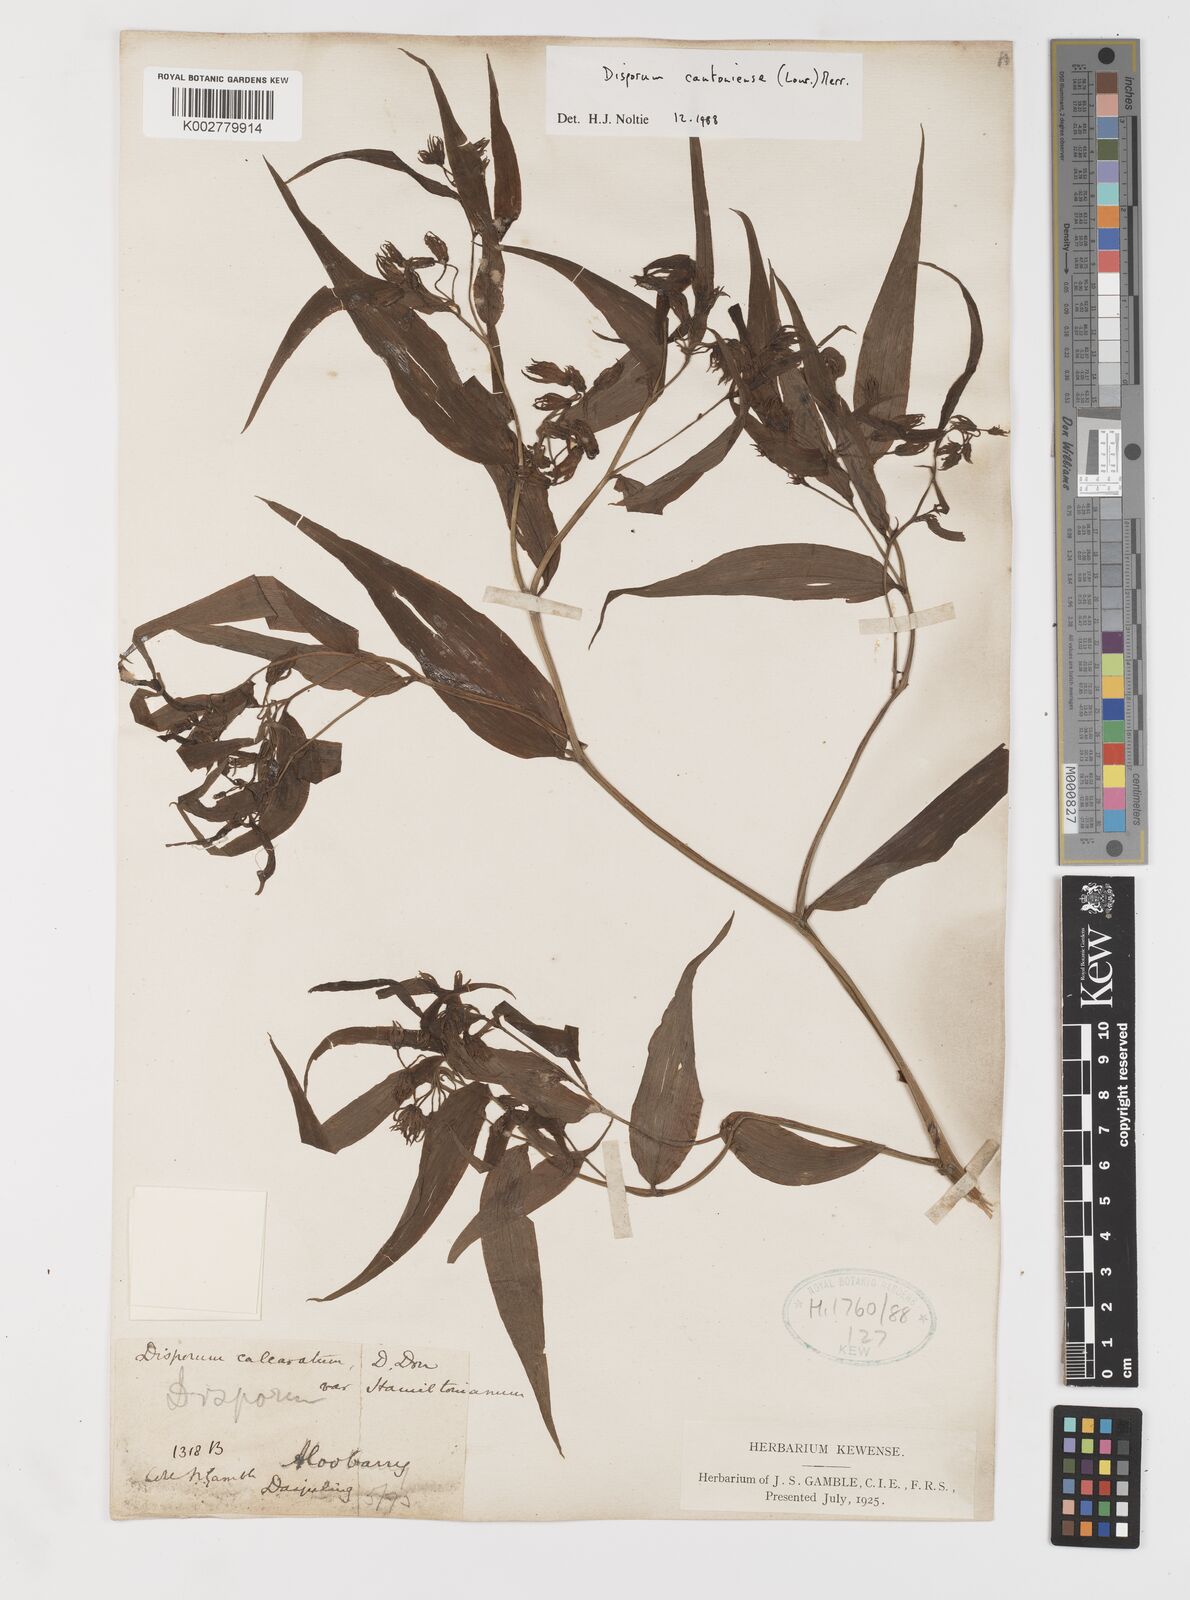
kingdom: Plantae
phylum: Tracheophyta
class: Liliopsida
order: Liliales
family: Colchicaceae
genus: Disporum
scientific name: Disporum cantoniense
